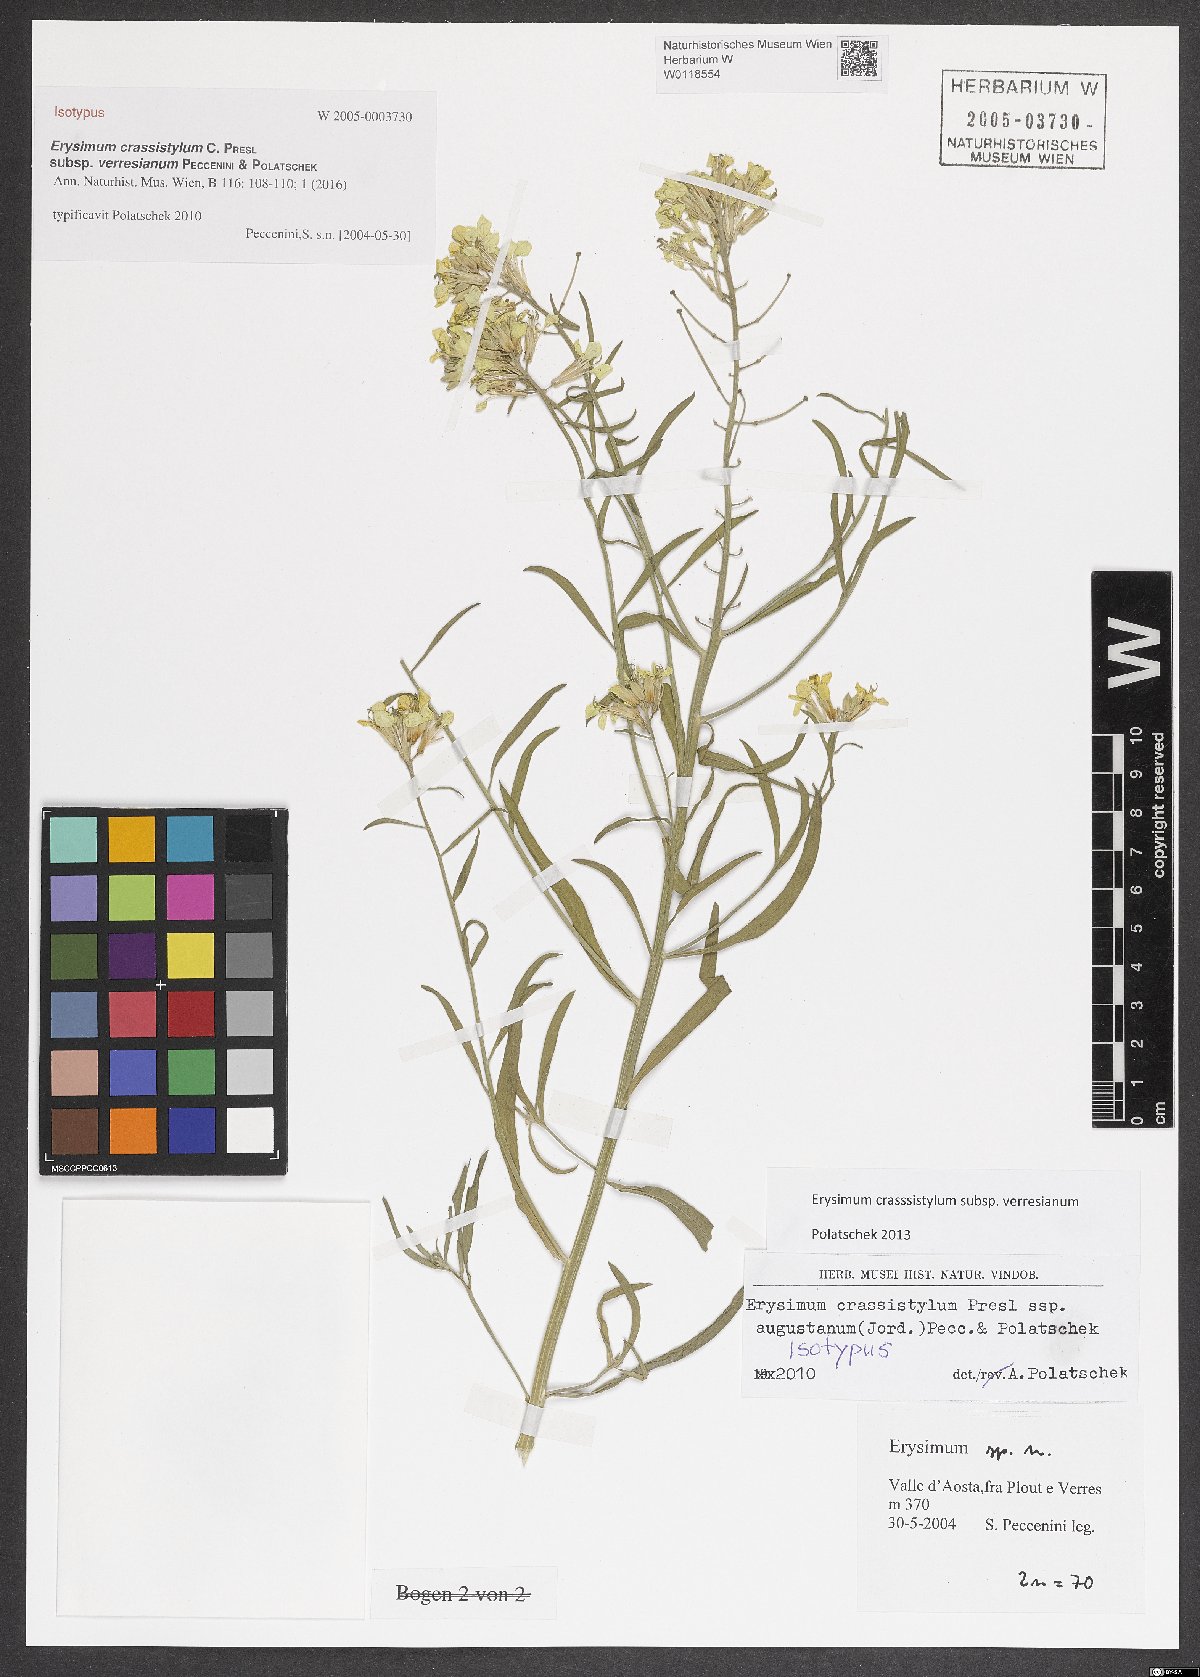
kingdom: Plantae
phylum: Tracheophyta
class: Magnoliopsida
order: Brassicales
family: Brassicaceae
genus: Erysimum
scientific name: Erysimum crassistylum
